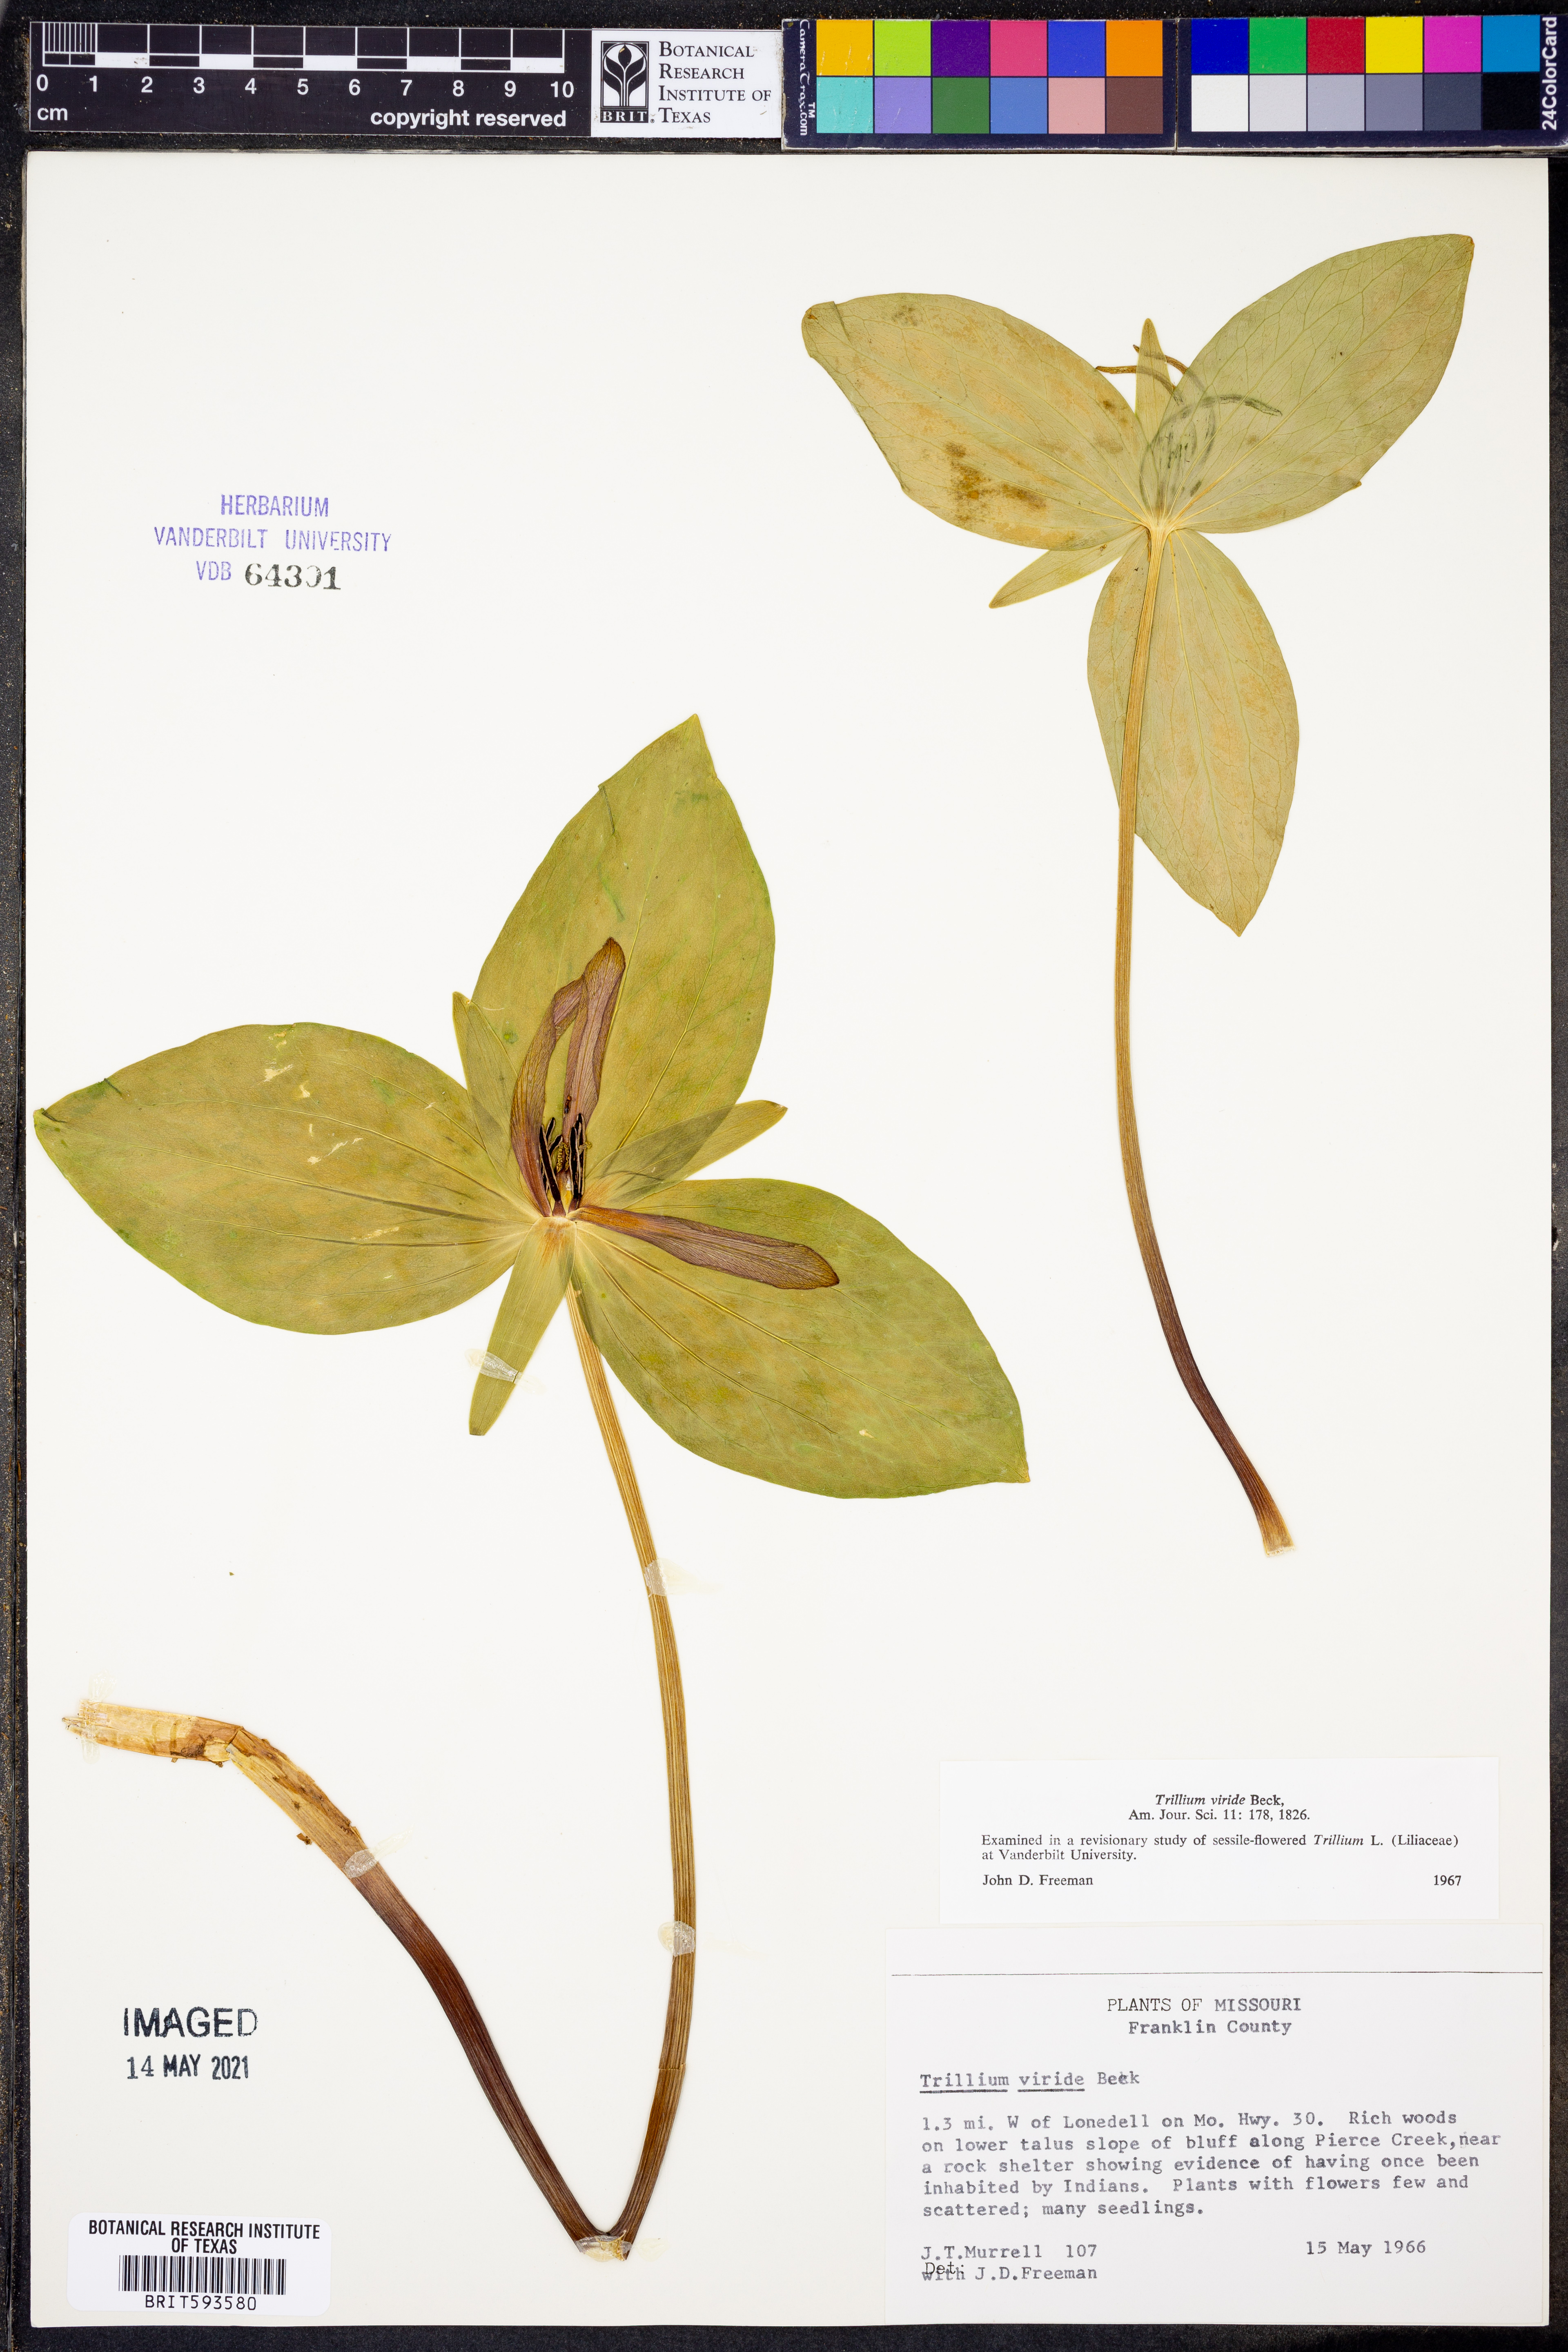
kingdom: Plantae
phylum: Tracheophyta
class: Liliopsida
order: Liliales
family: Melanthiaceae
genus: Trillium
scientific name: Trillium viride
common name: Green trillium
